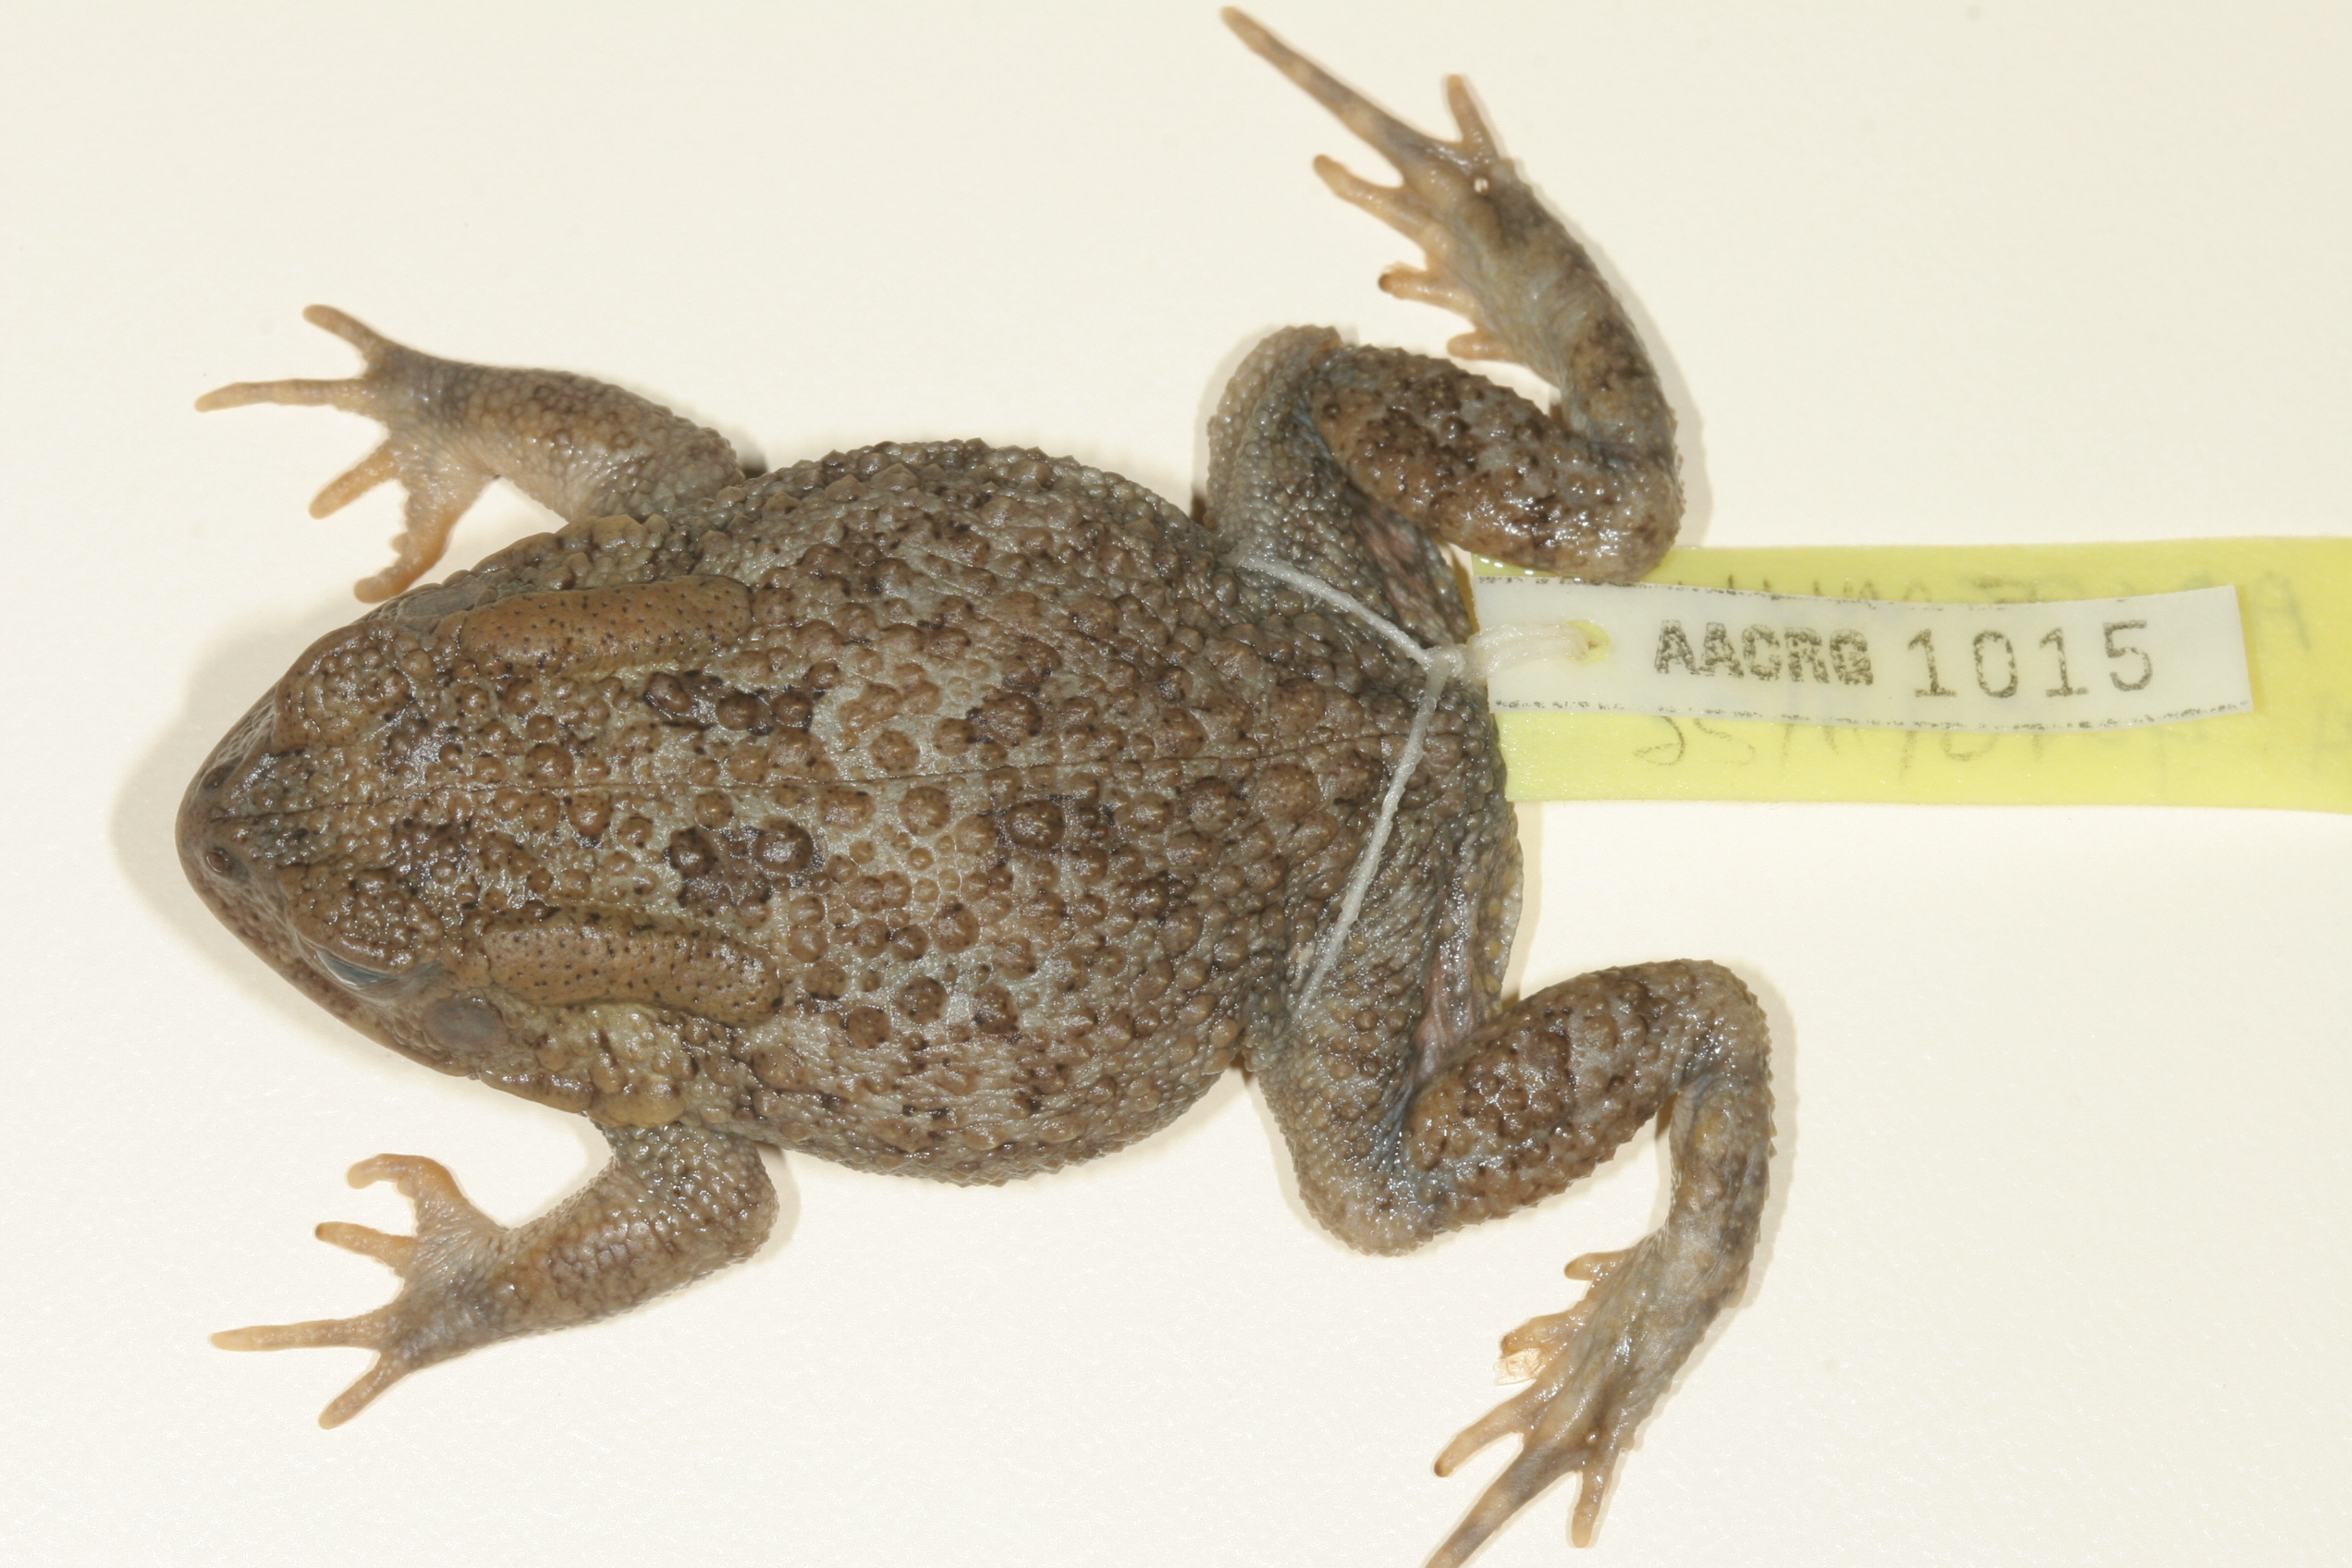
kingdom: Animalia
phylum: Chordata
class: Amphibia
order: Anura
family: Bufonidae
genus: Sclerophrys
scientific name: Sclerophrys gutturalis
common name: African common toad
